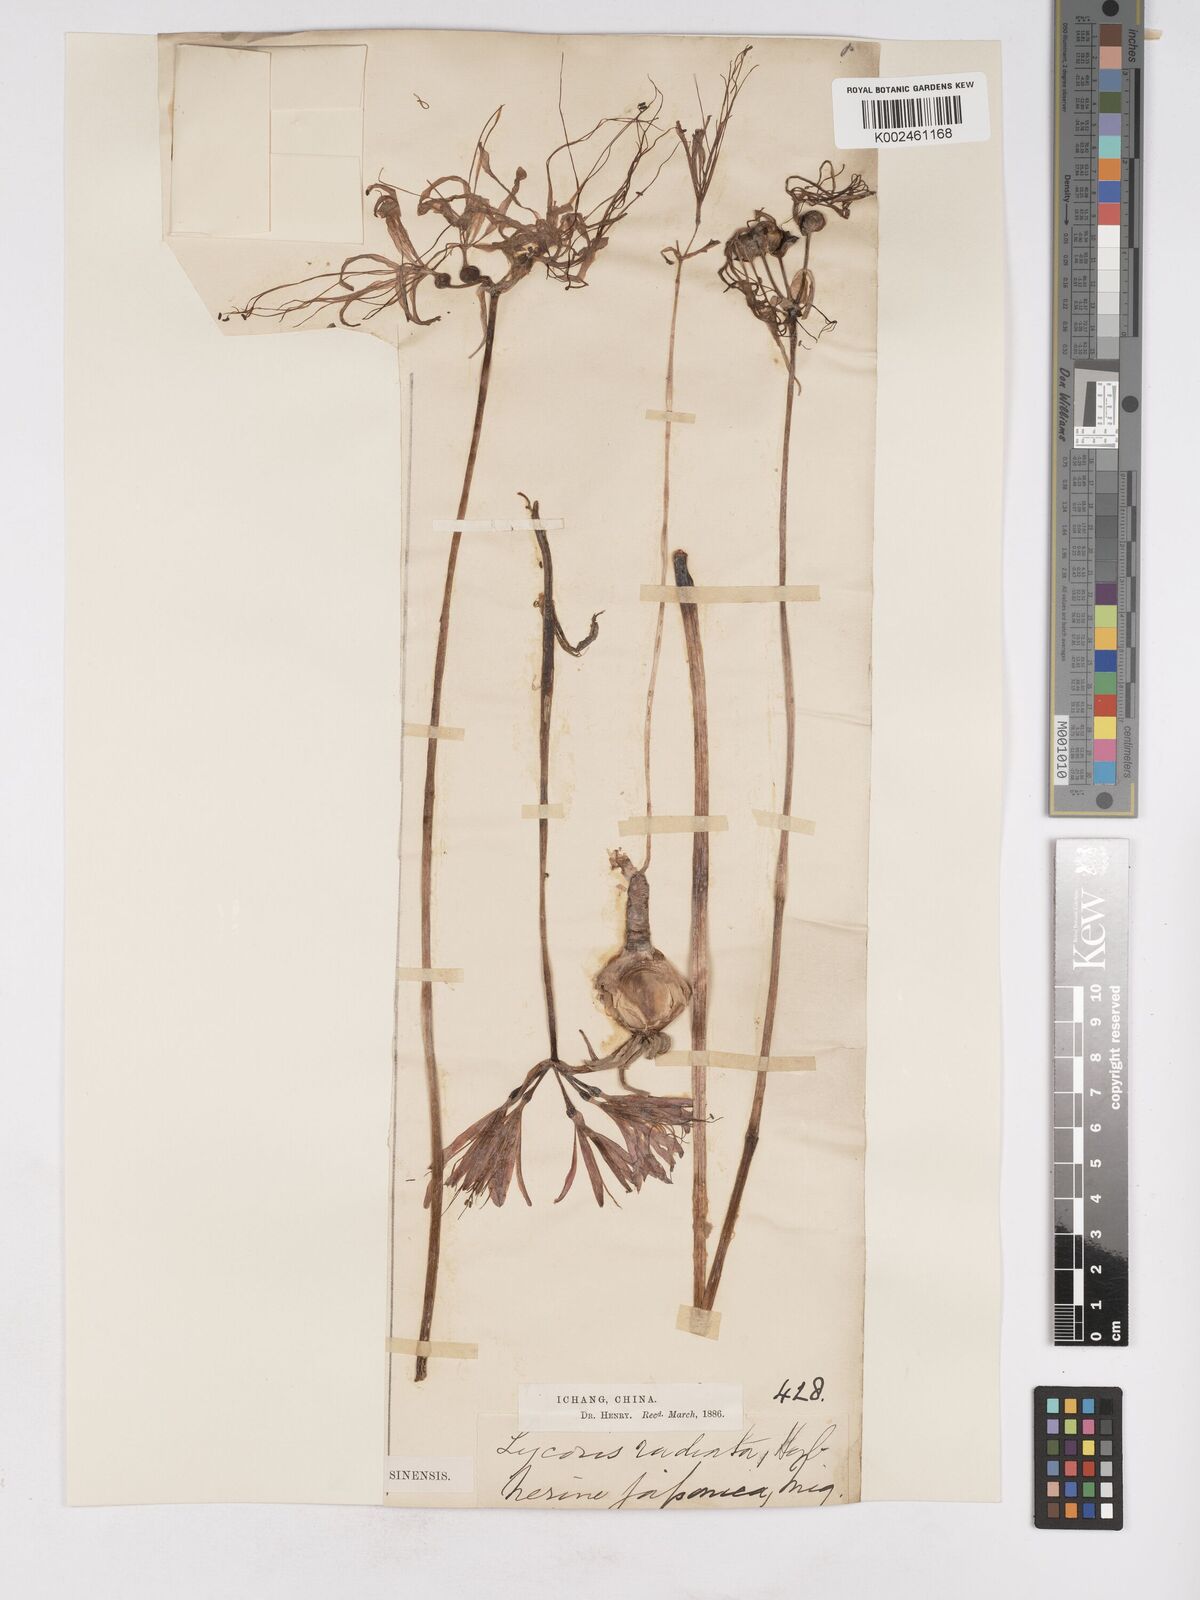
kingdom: Plantae
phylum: Tracheophyta
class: Liliopsida
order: Asparagales
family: Amaryllidaceae
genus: Lycoris
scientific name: Lycoris radiata
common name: Red spider lily
